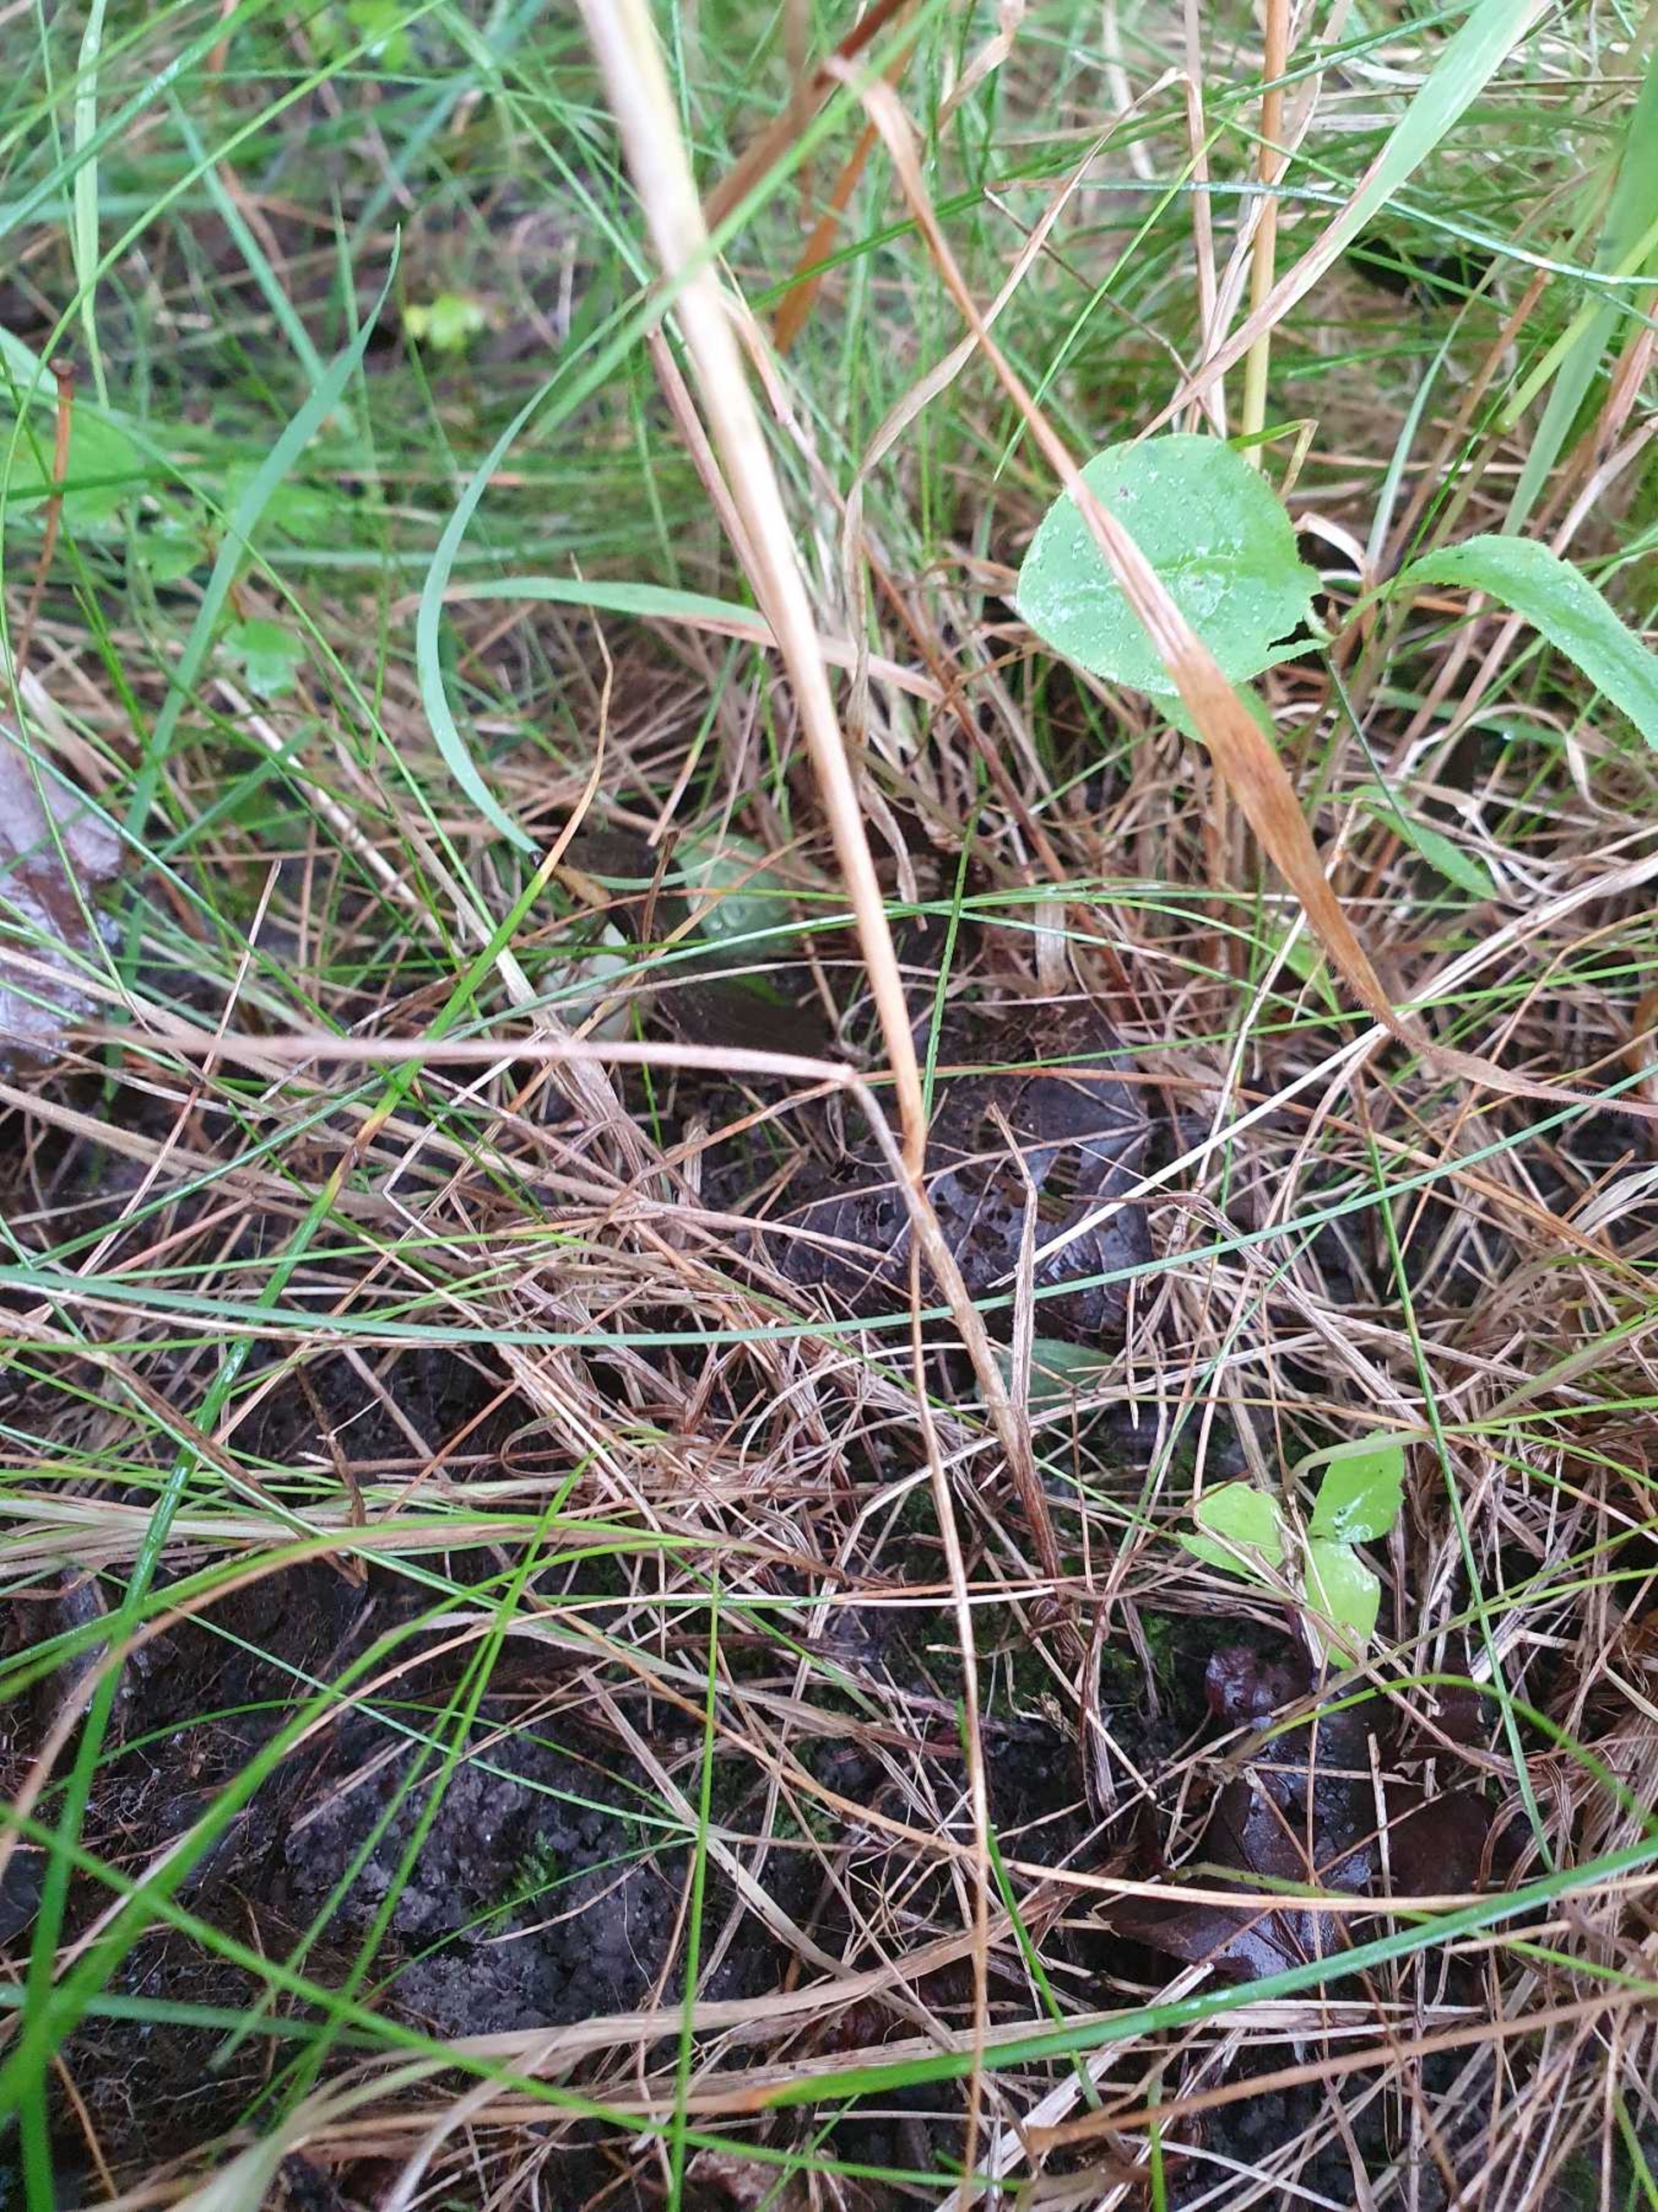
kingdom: Plantae
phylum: Tracheophyta
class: Liliopsida
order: Poales
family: Poaceae
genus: Festuca
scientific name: Festuca rubra
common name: Rød svingel
